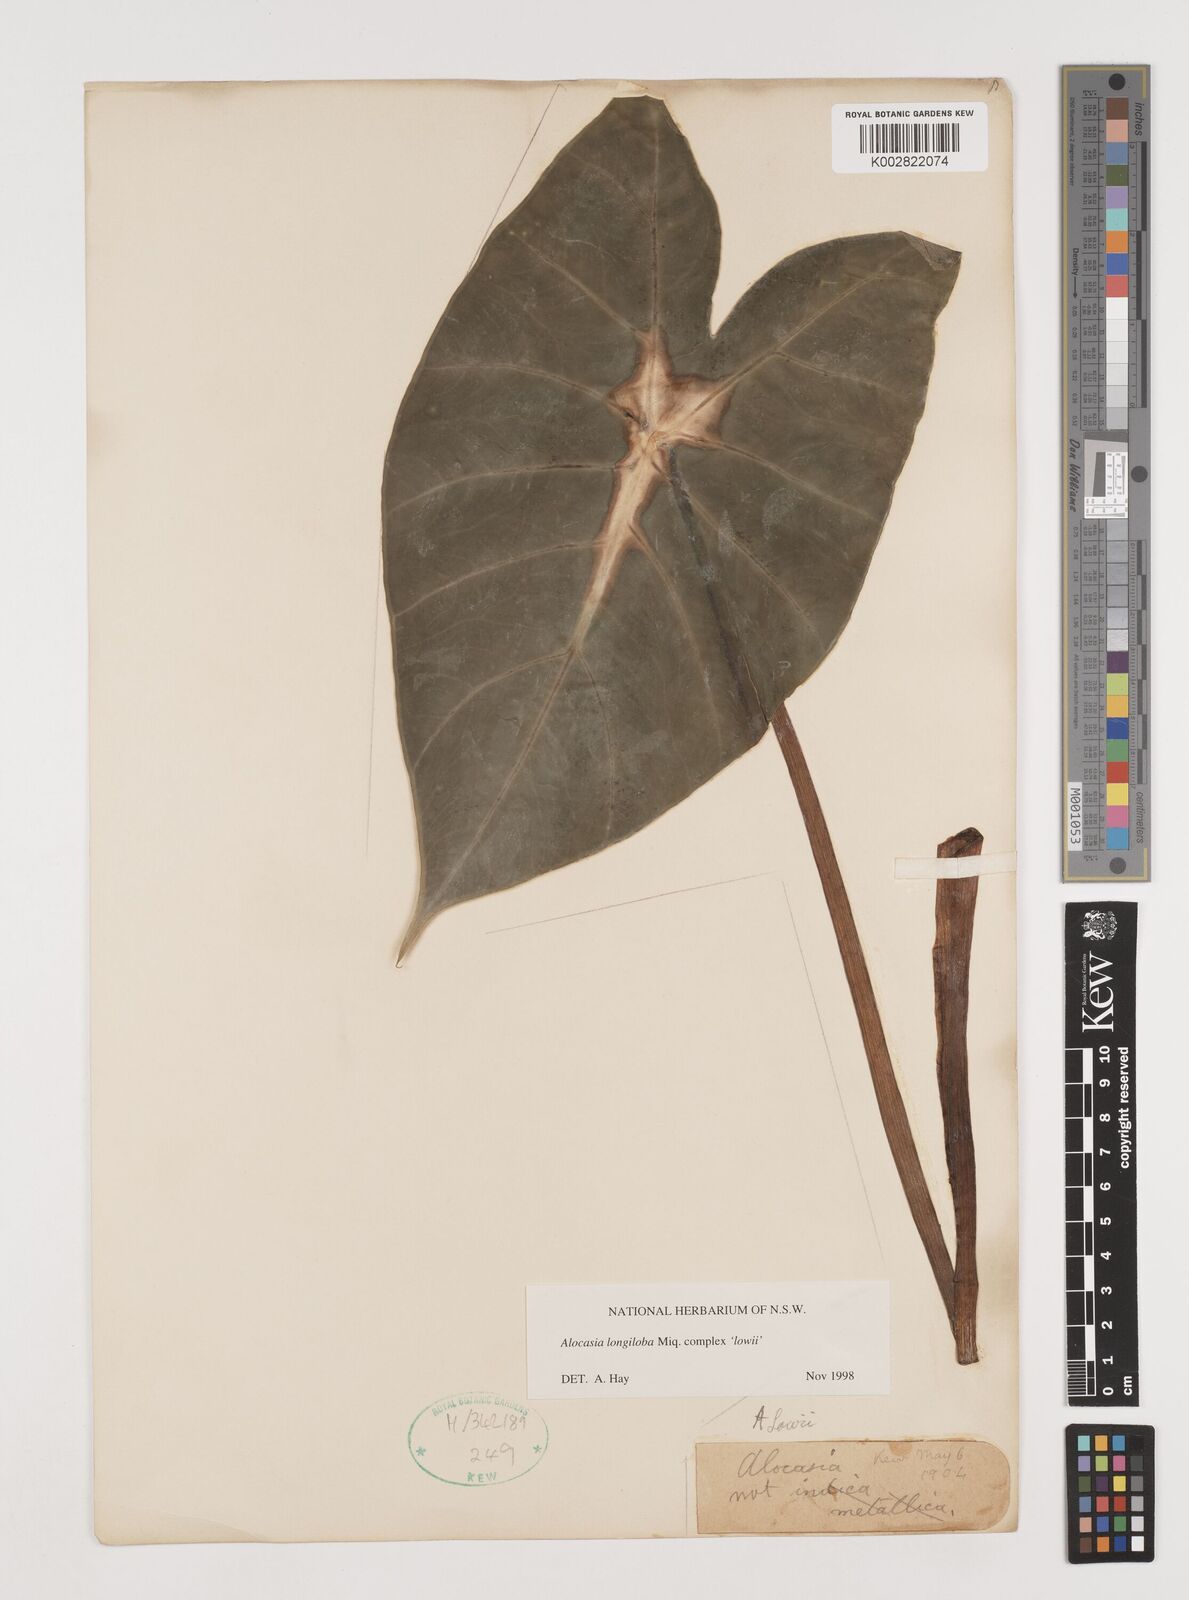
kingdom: Plantae
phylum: Tracheophyta
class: Liliopsida
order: Alismatales
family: Araceae
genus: Alocasia
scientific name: Alocasia longiloba
